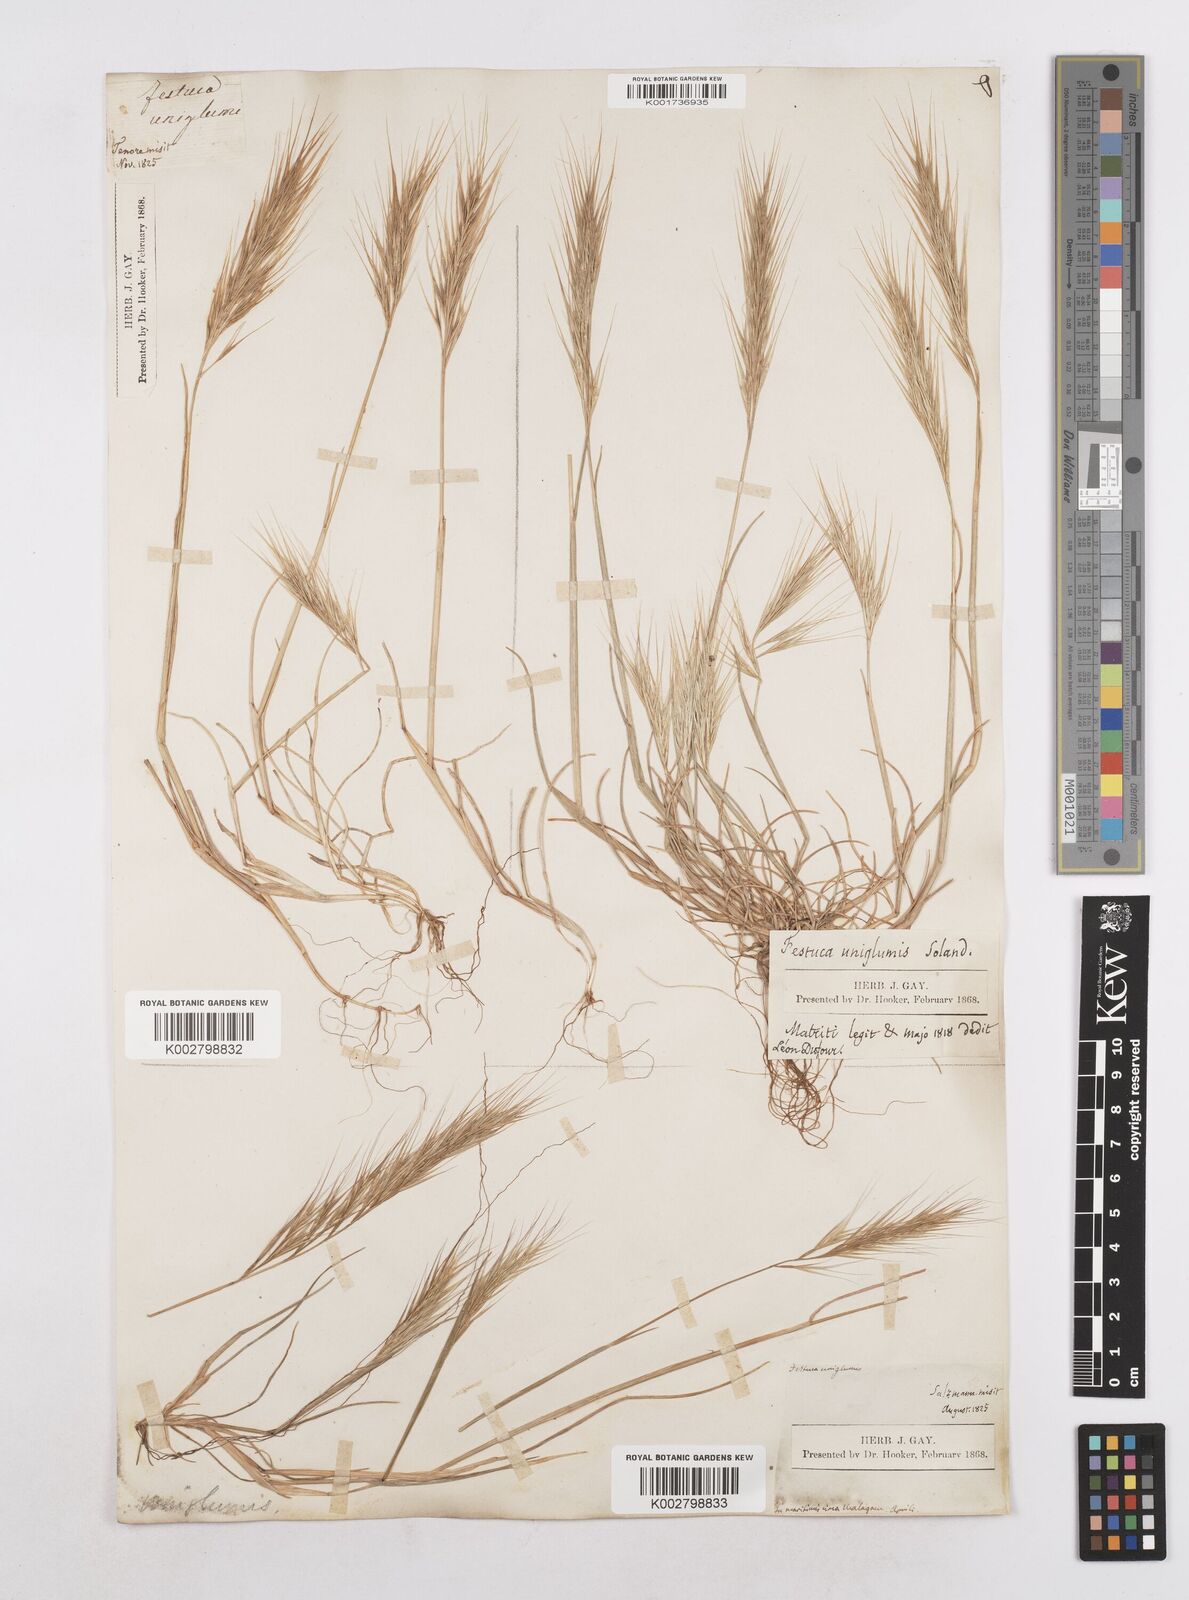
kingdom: Plantae
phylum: Tracheophyta
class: Liliopsida
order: Poales
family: Poaceae
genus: Festuca
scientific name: Festuca membranacea
